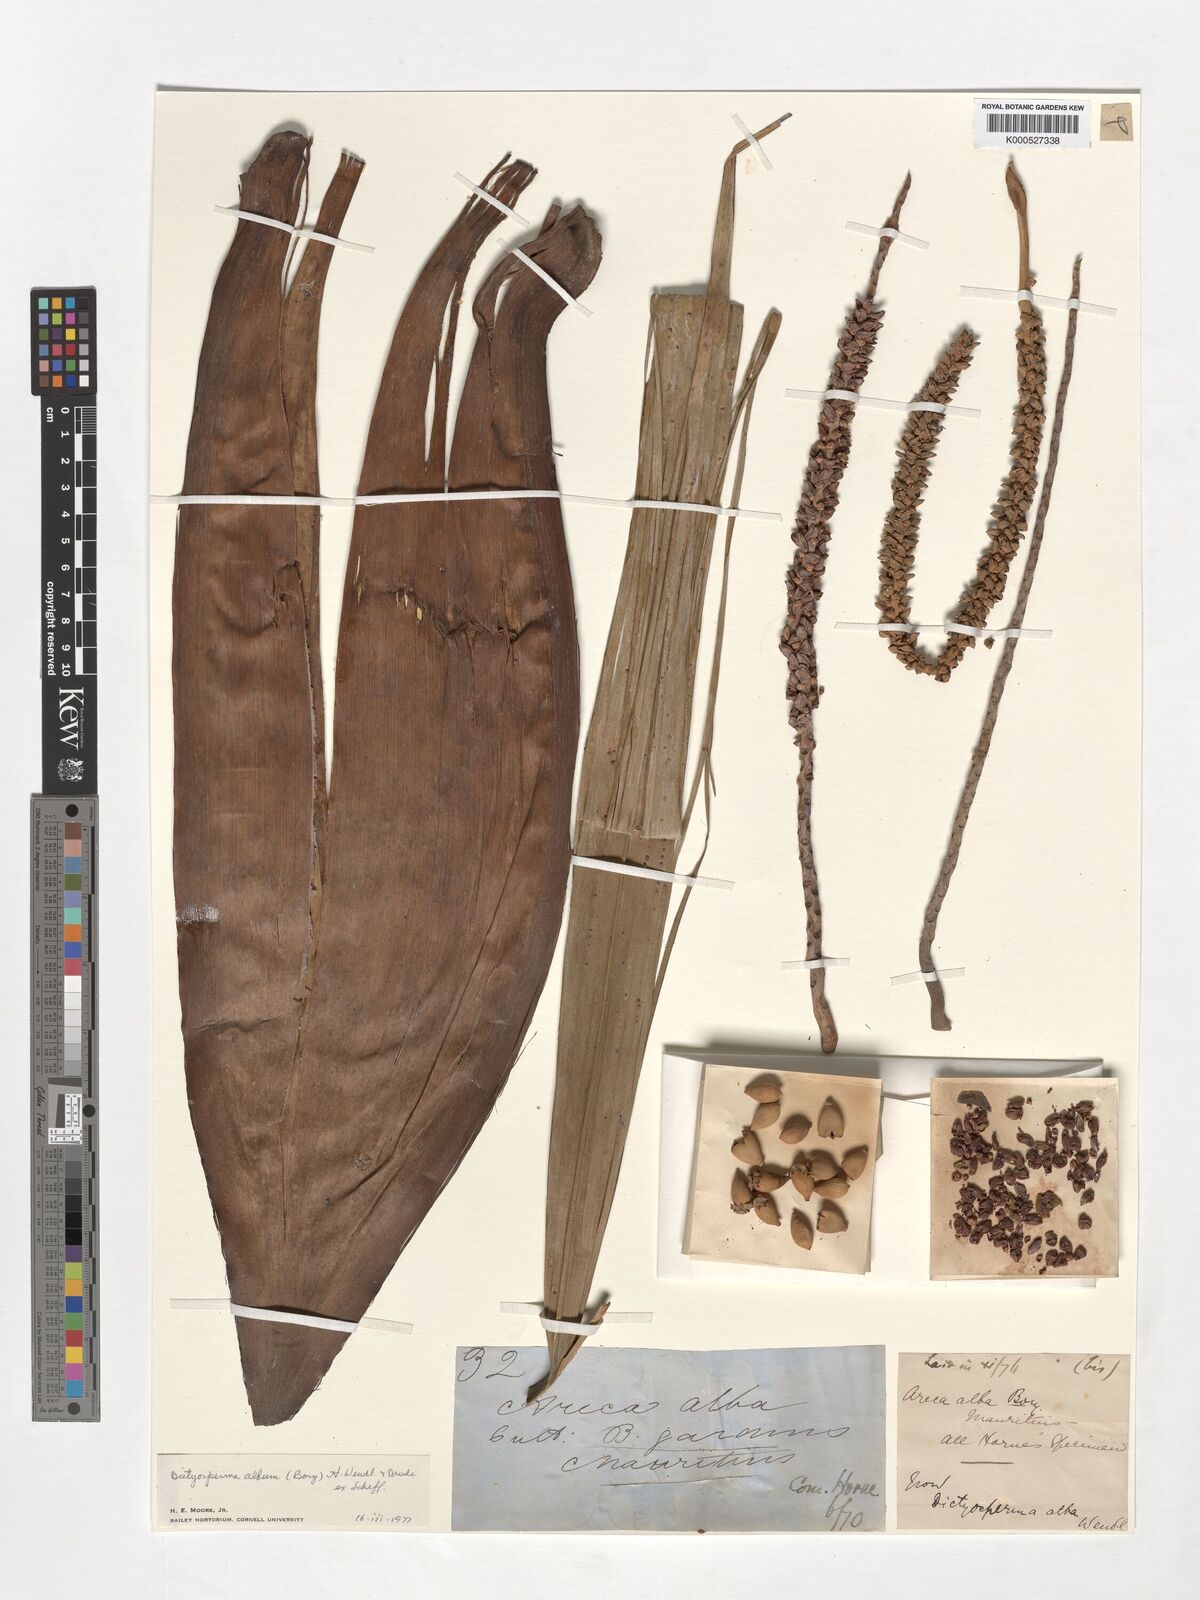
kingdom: Plantae
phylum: Tracheophyta
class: Liliopsida
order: Arecales
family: Arecaceae
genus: Dictyosperma
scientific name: Dictyosperma album
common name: Common princess palm
